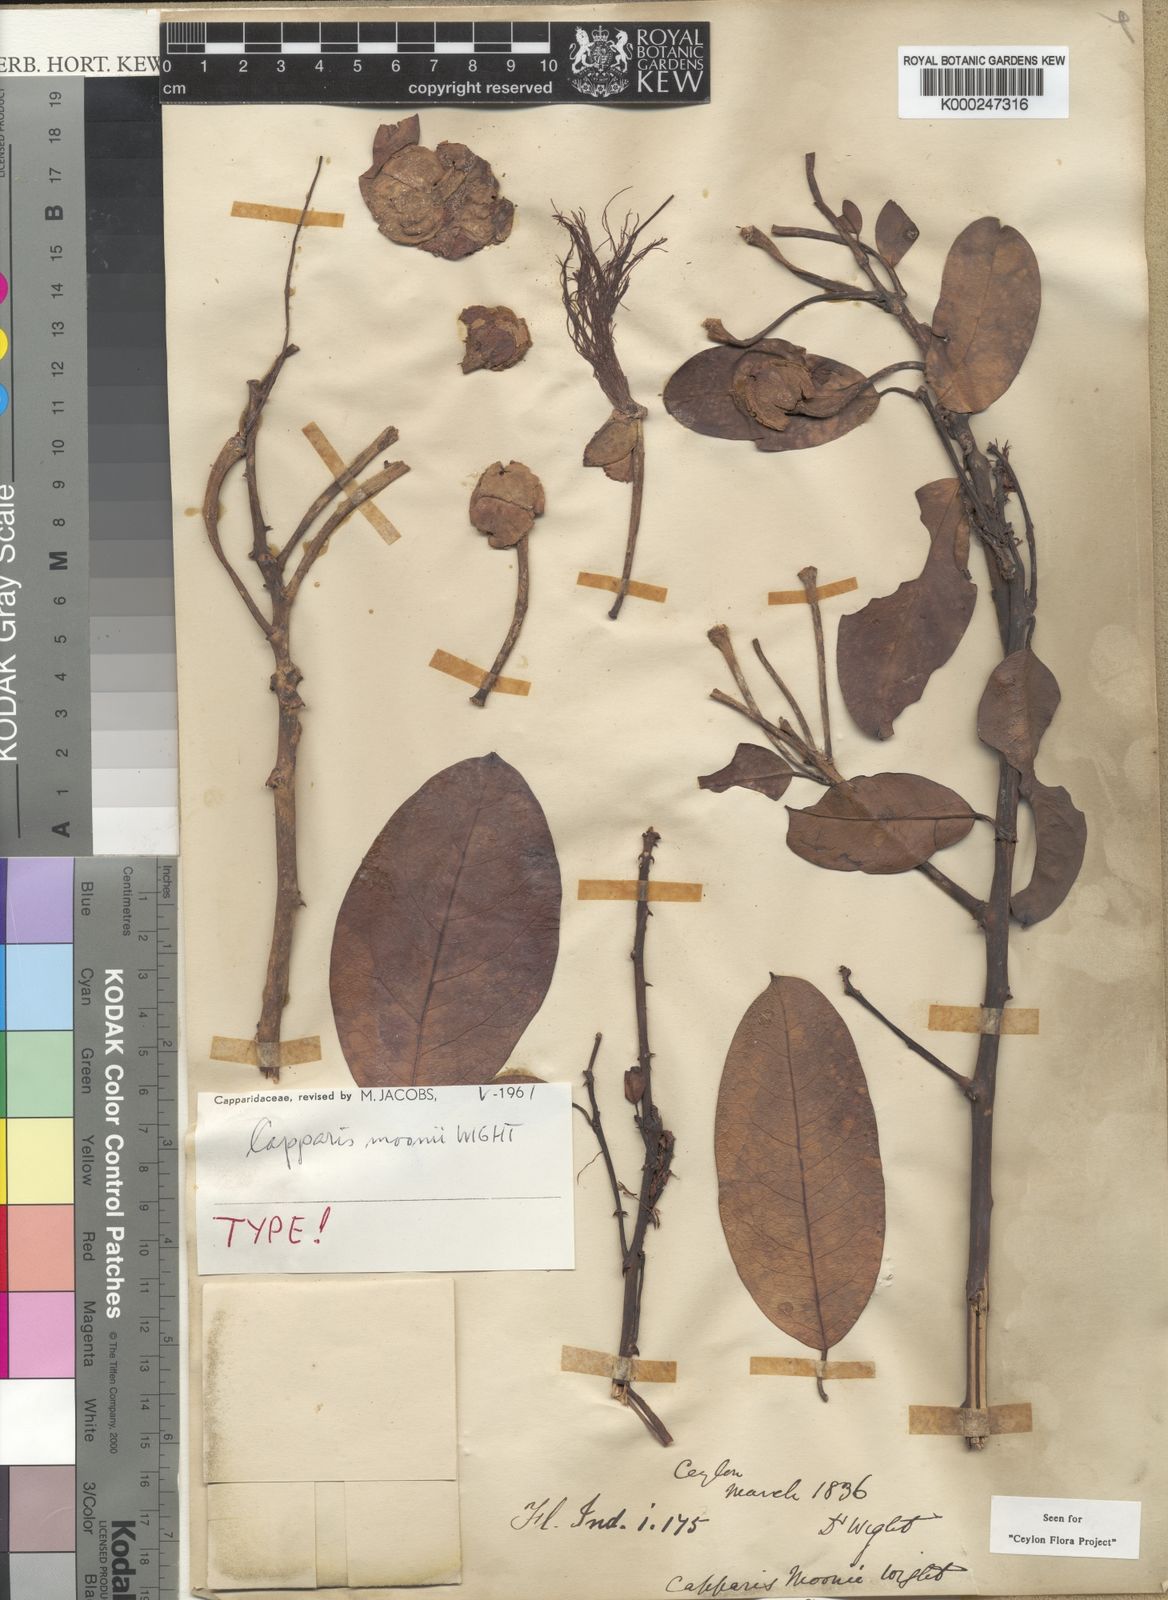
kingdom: Plantae
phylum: Tracheophyta
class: Magnoliopsida
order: Brassicales
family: Capparaceae
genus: Capparis
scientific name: Capparis moonii
